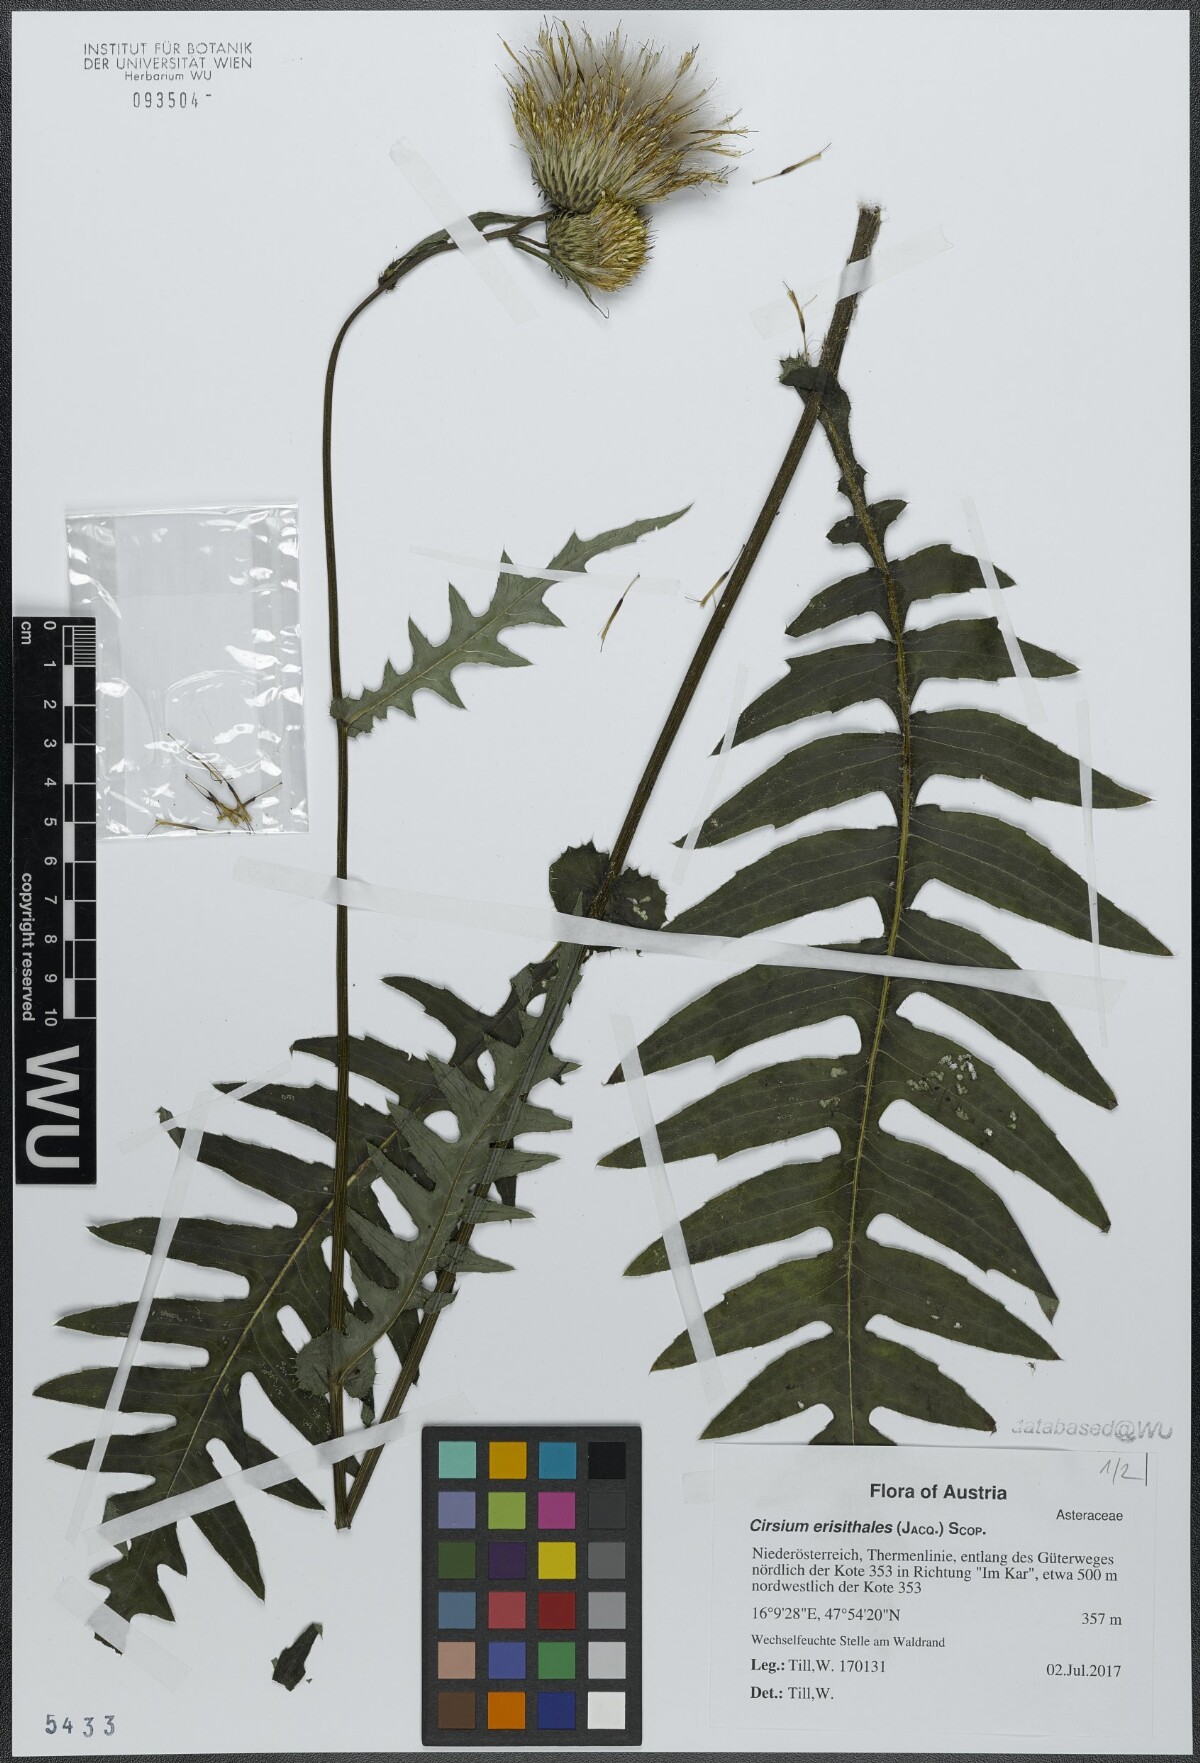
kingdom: Plantae
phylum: Tracheophyta
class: Magnoliopsida
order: Asterales
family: Asteraceae
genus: Cirsium
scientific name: Cirsium erisithales
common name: Yellow thistle
